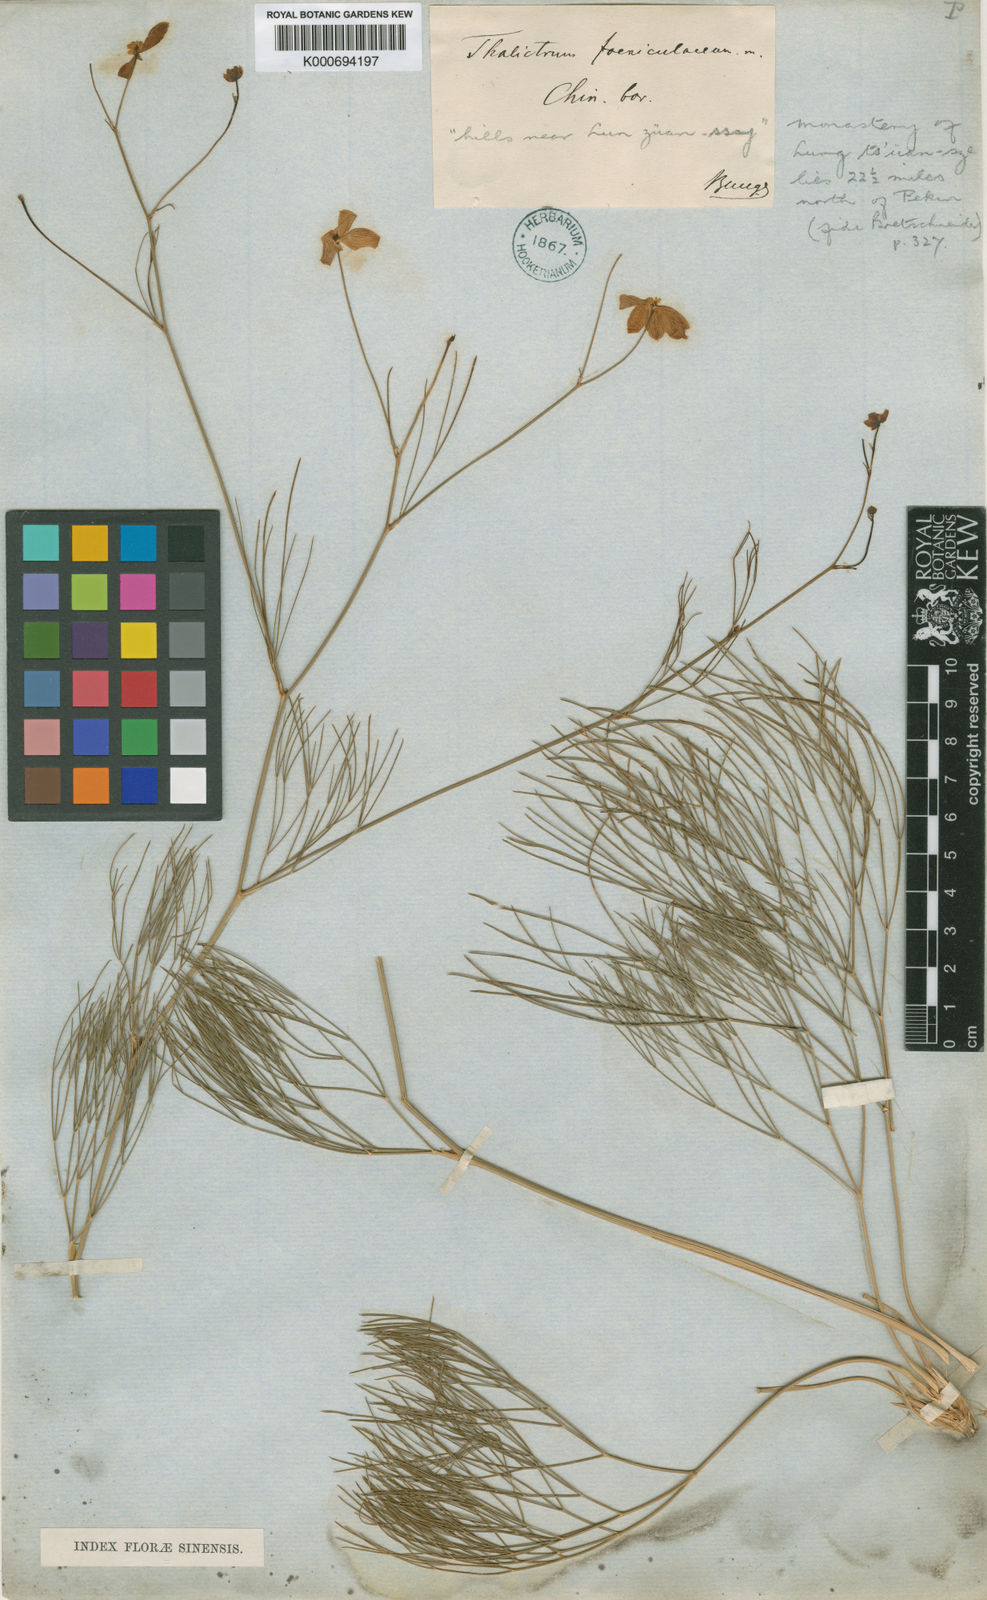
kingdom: Plantae
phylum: Tracheophyta
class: Magnoliopsida
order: Ranunculales
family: Ranunculaceae
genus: Thalictrum
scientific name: Thalictrum foeniculaceum
